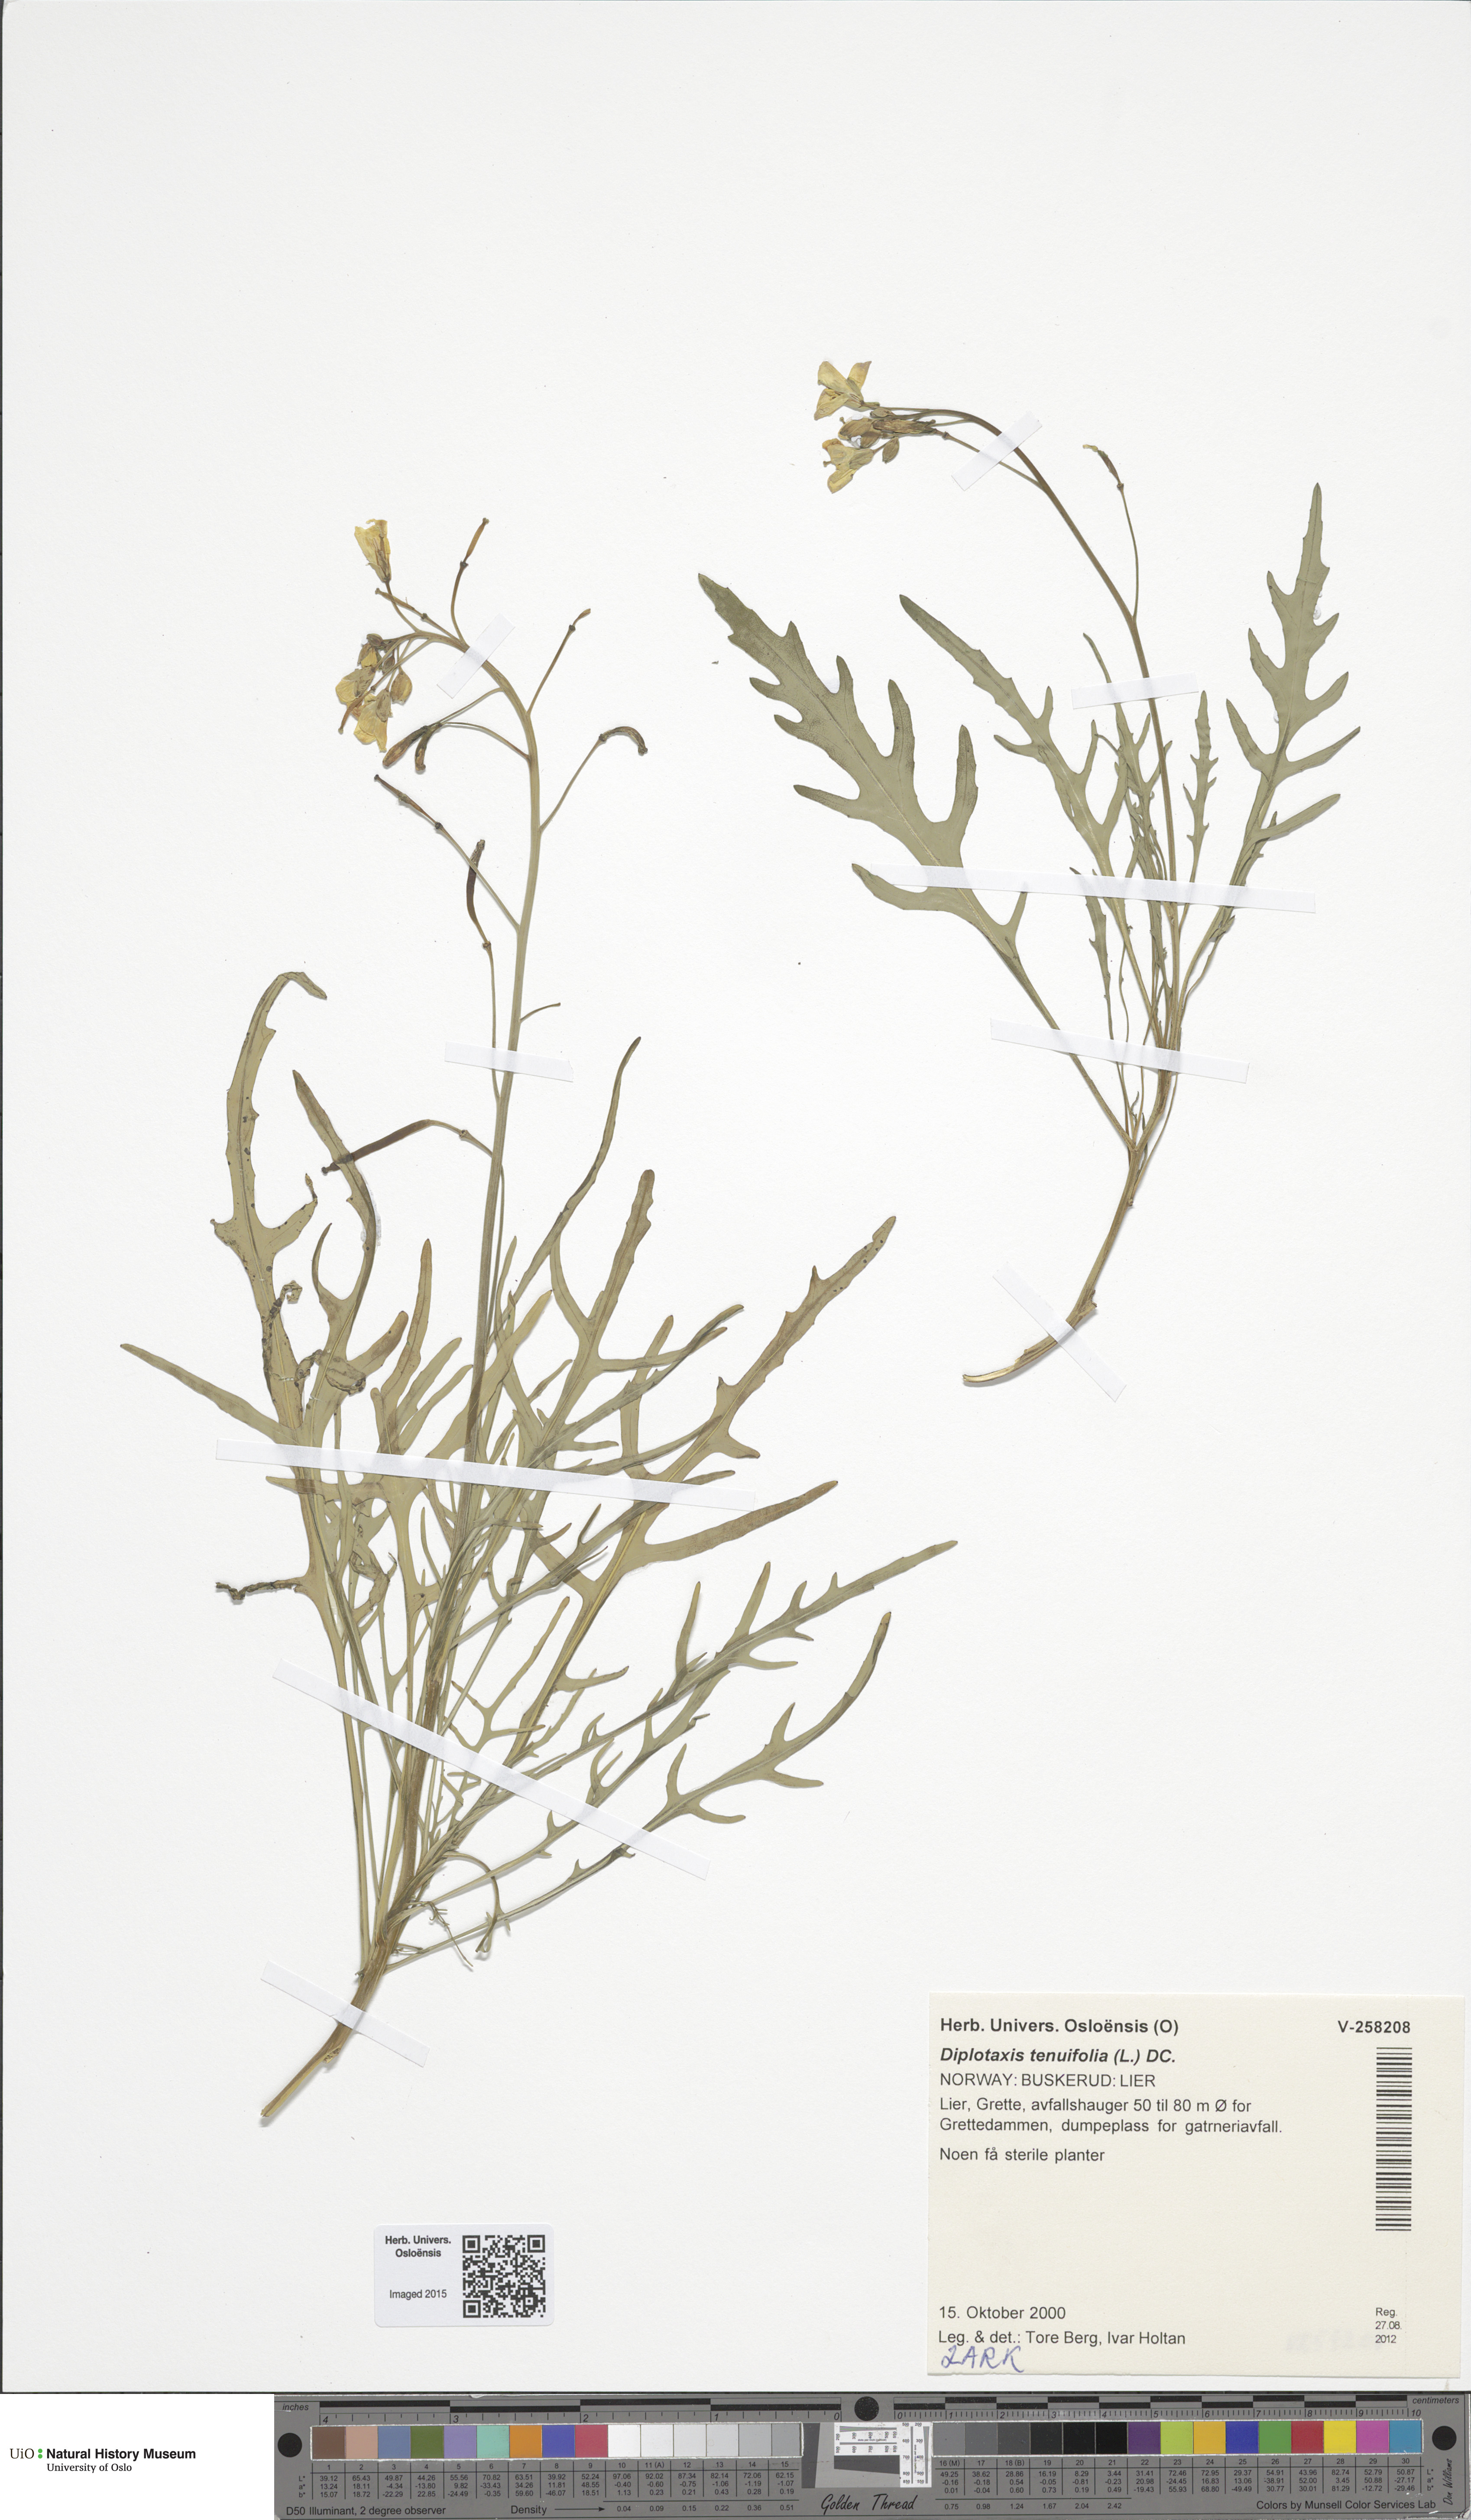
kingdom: Plantae
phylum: Tracheophyta
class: Magnoliopsida
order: Brassicales
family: Brassicaceae
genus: Diplotaxis
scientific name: Diplotaxis tenuifolia
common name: Perennial wall-rocket
